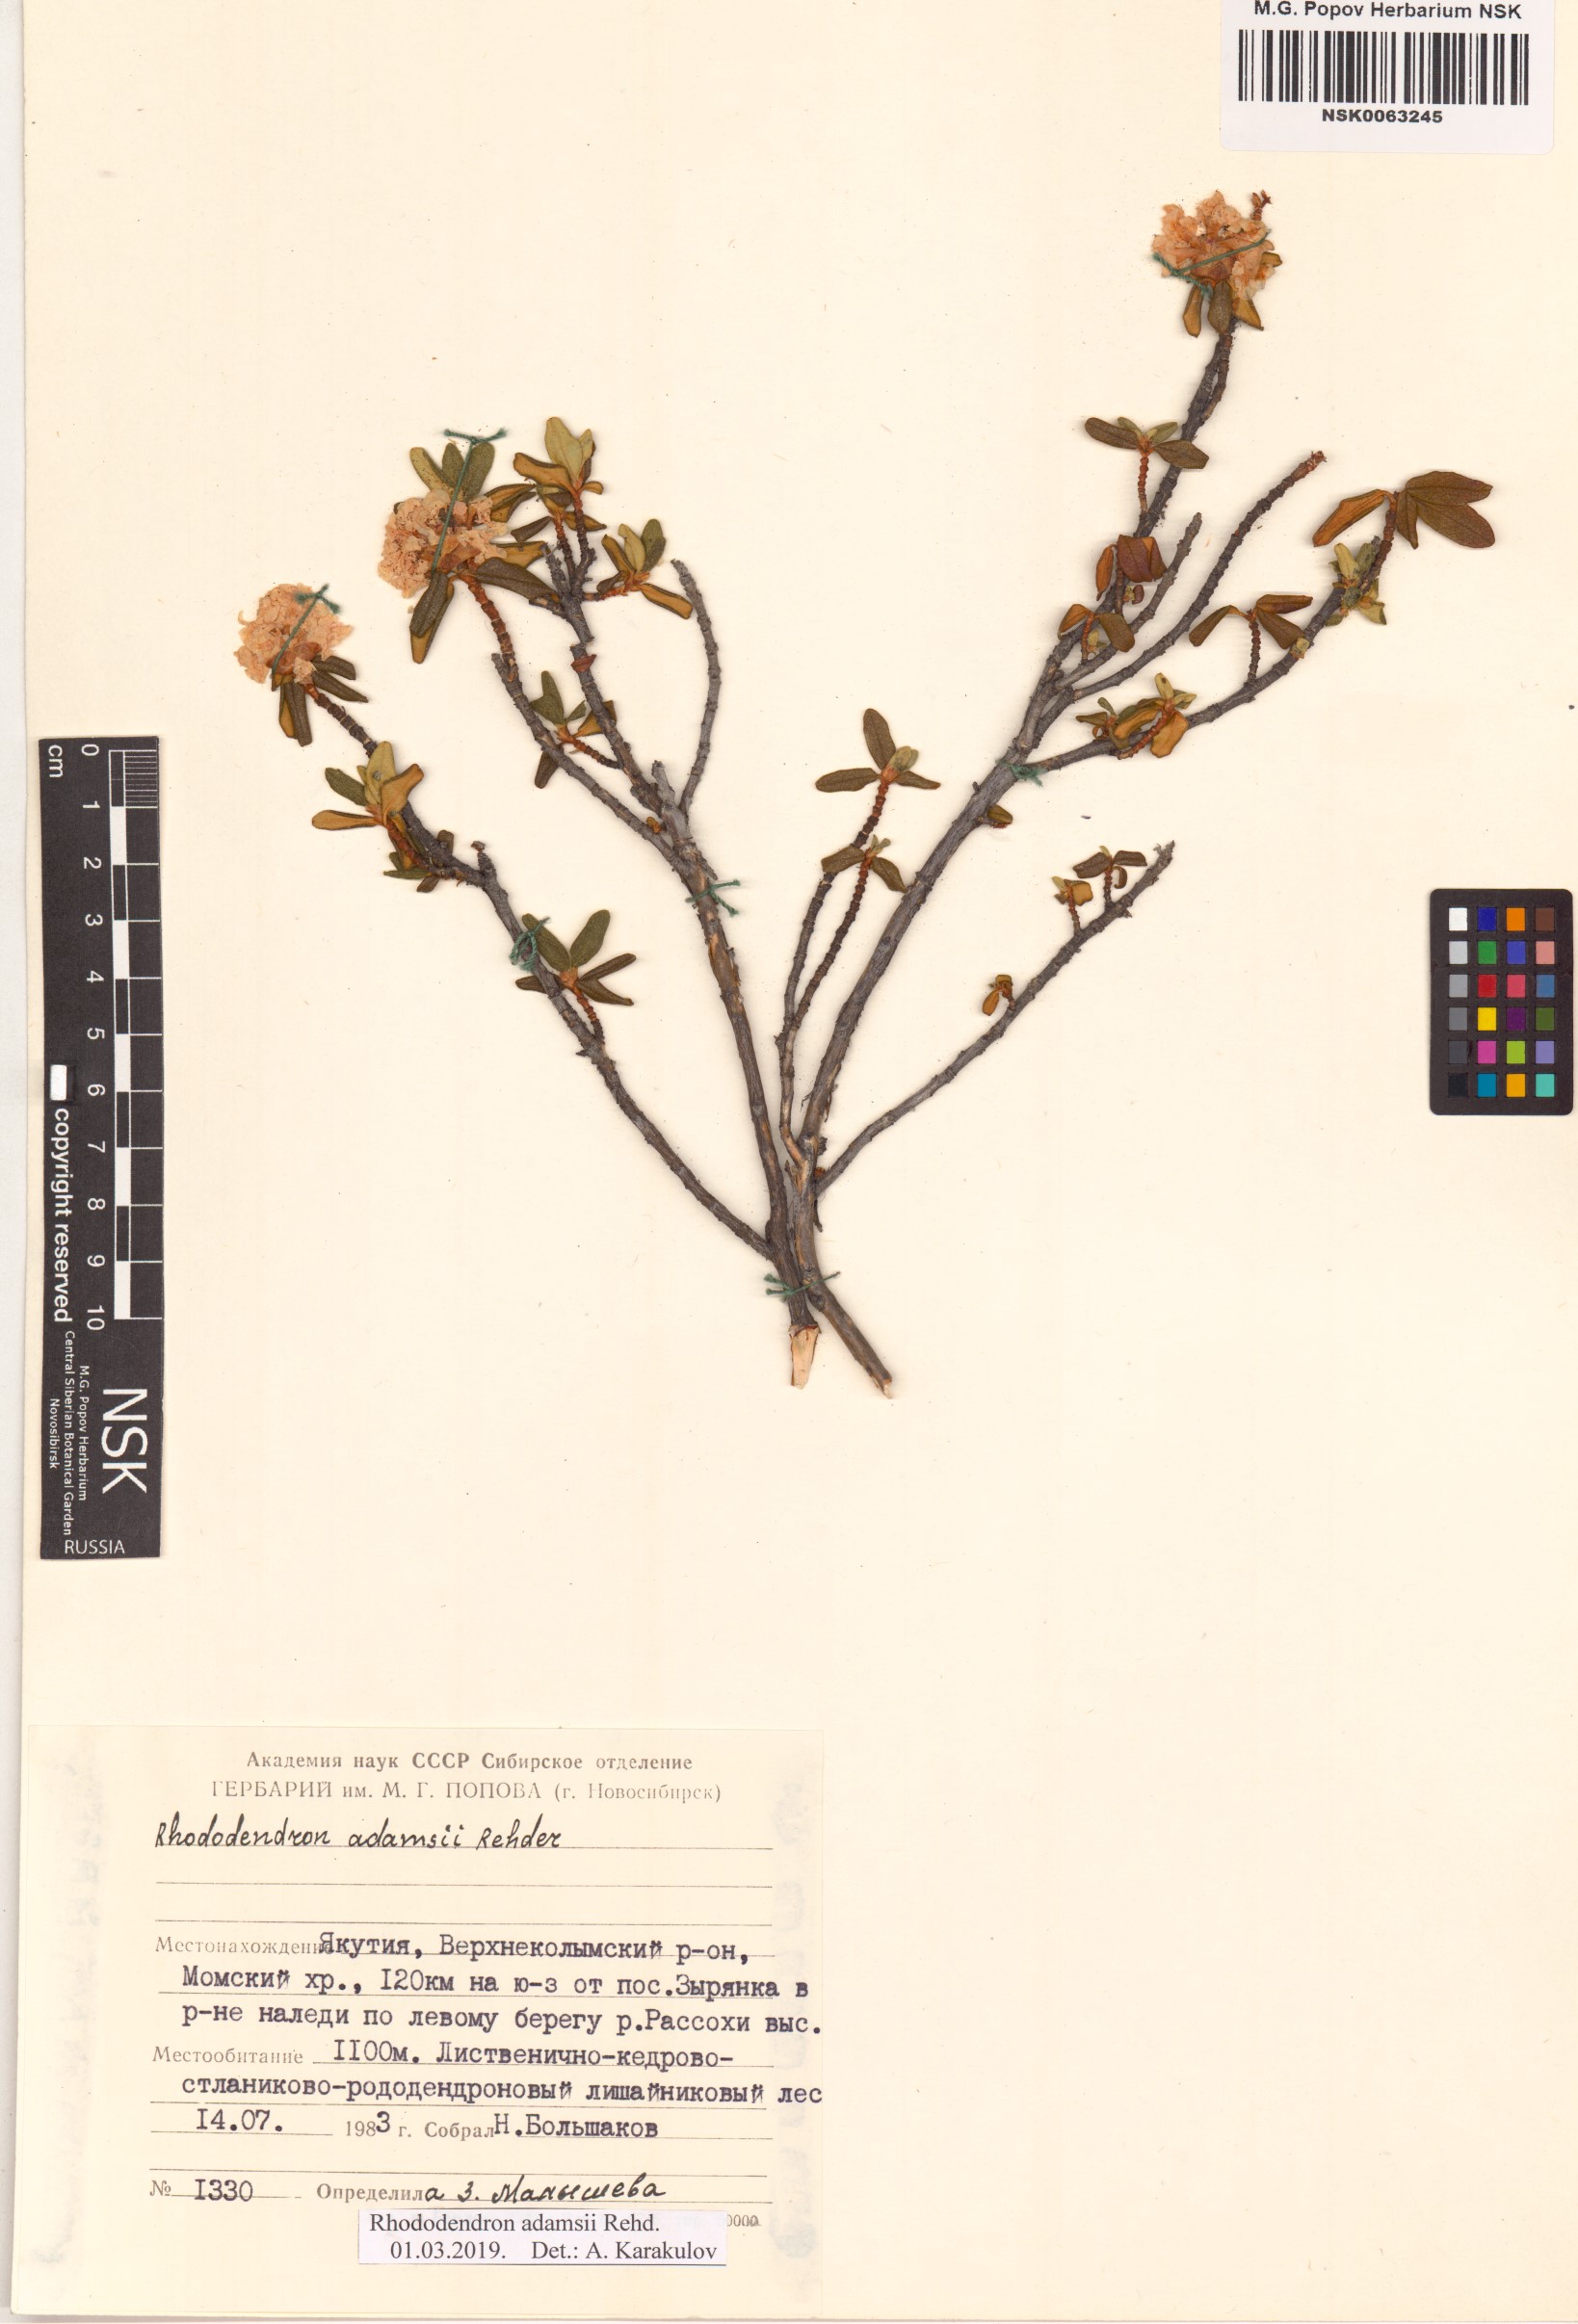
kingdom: Plantae
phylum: Tracheophyta
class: Magnoliopsida
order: Ericales
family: Ericaceae
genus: Rhododendron
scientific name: Rhododendron adamsii
